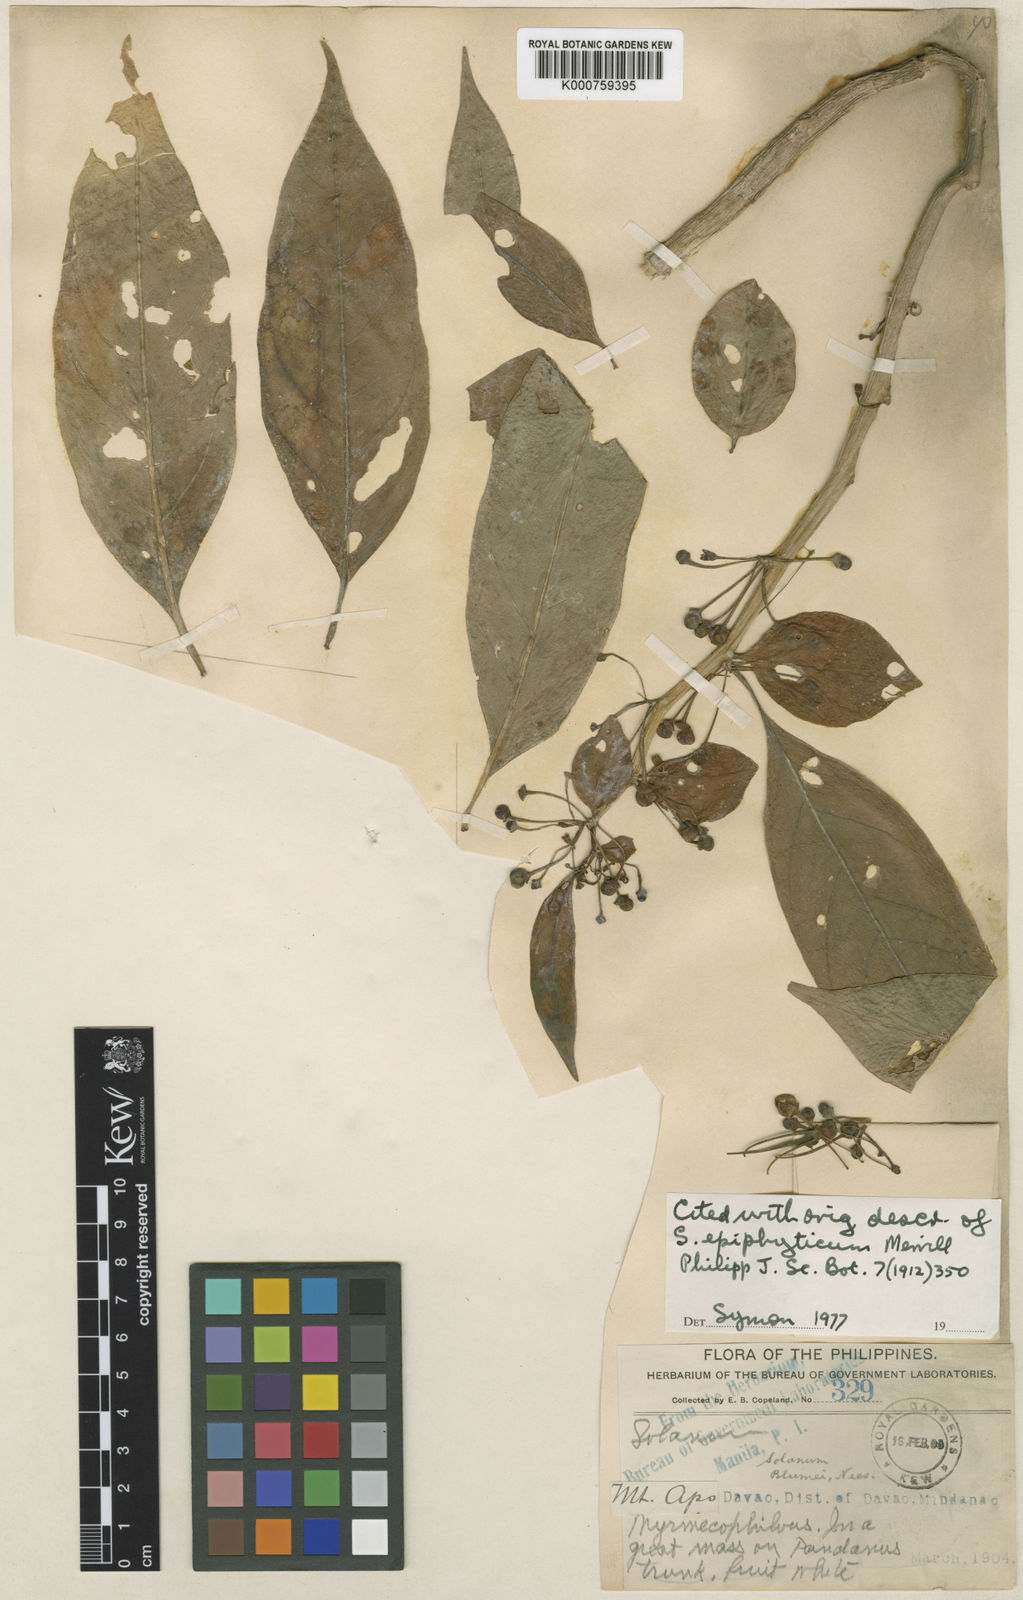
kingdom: Plantae
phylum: Tracheophyta
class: Magnoliopsida
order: Solanales
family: Solanaceae
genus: Lycianthes
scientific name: Lycianthes parasitica
